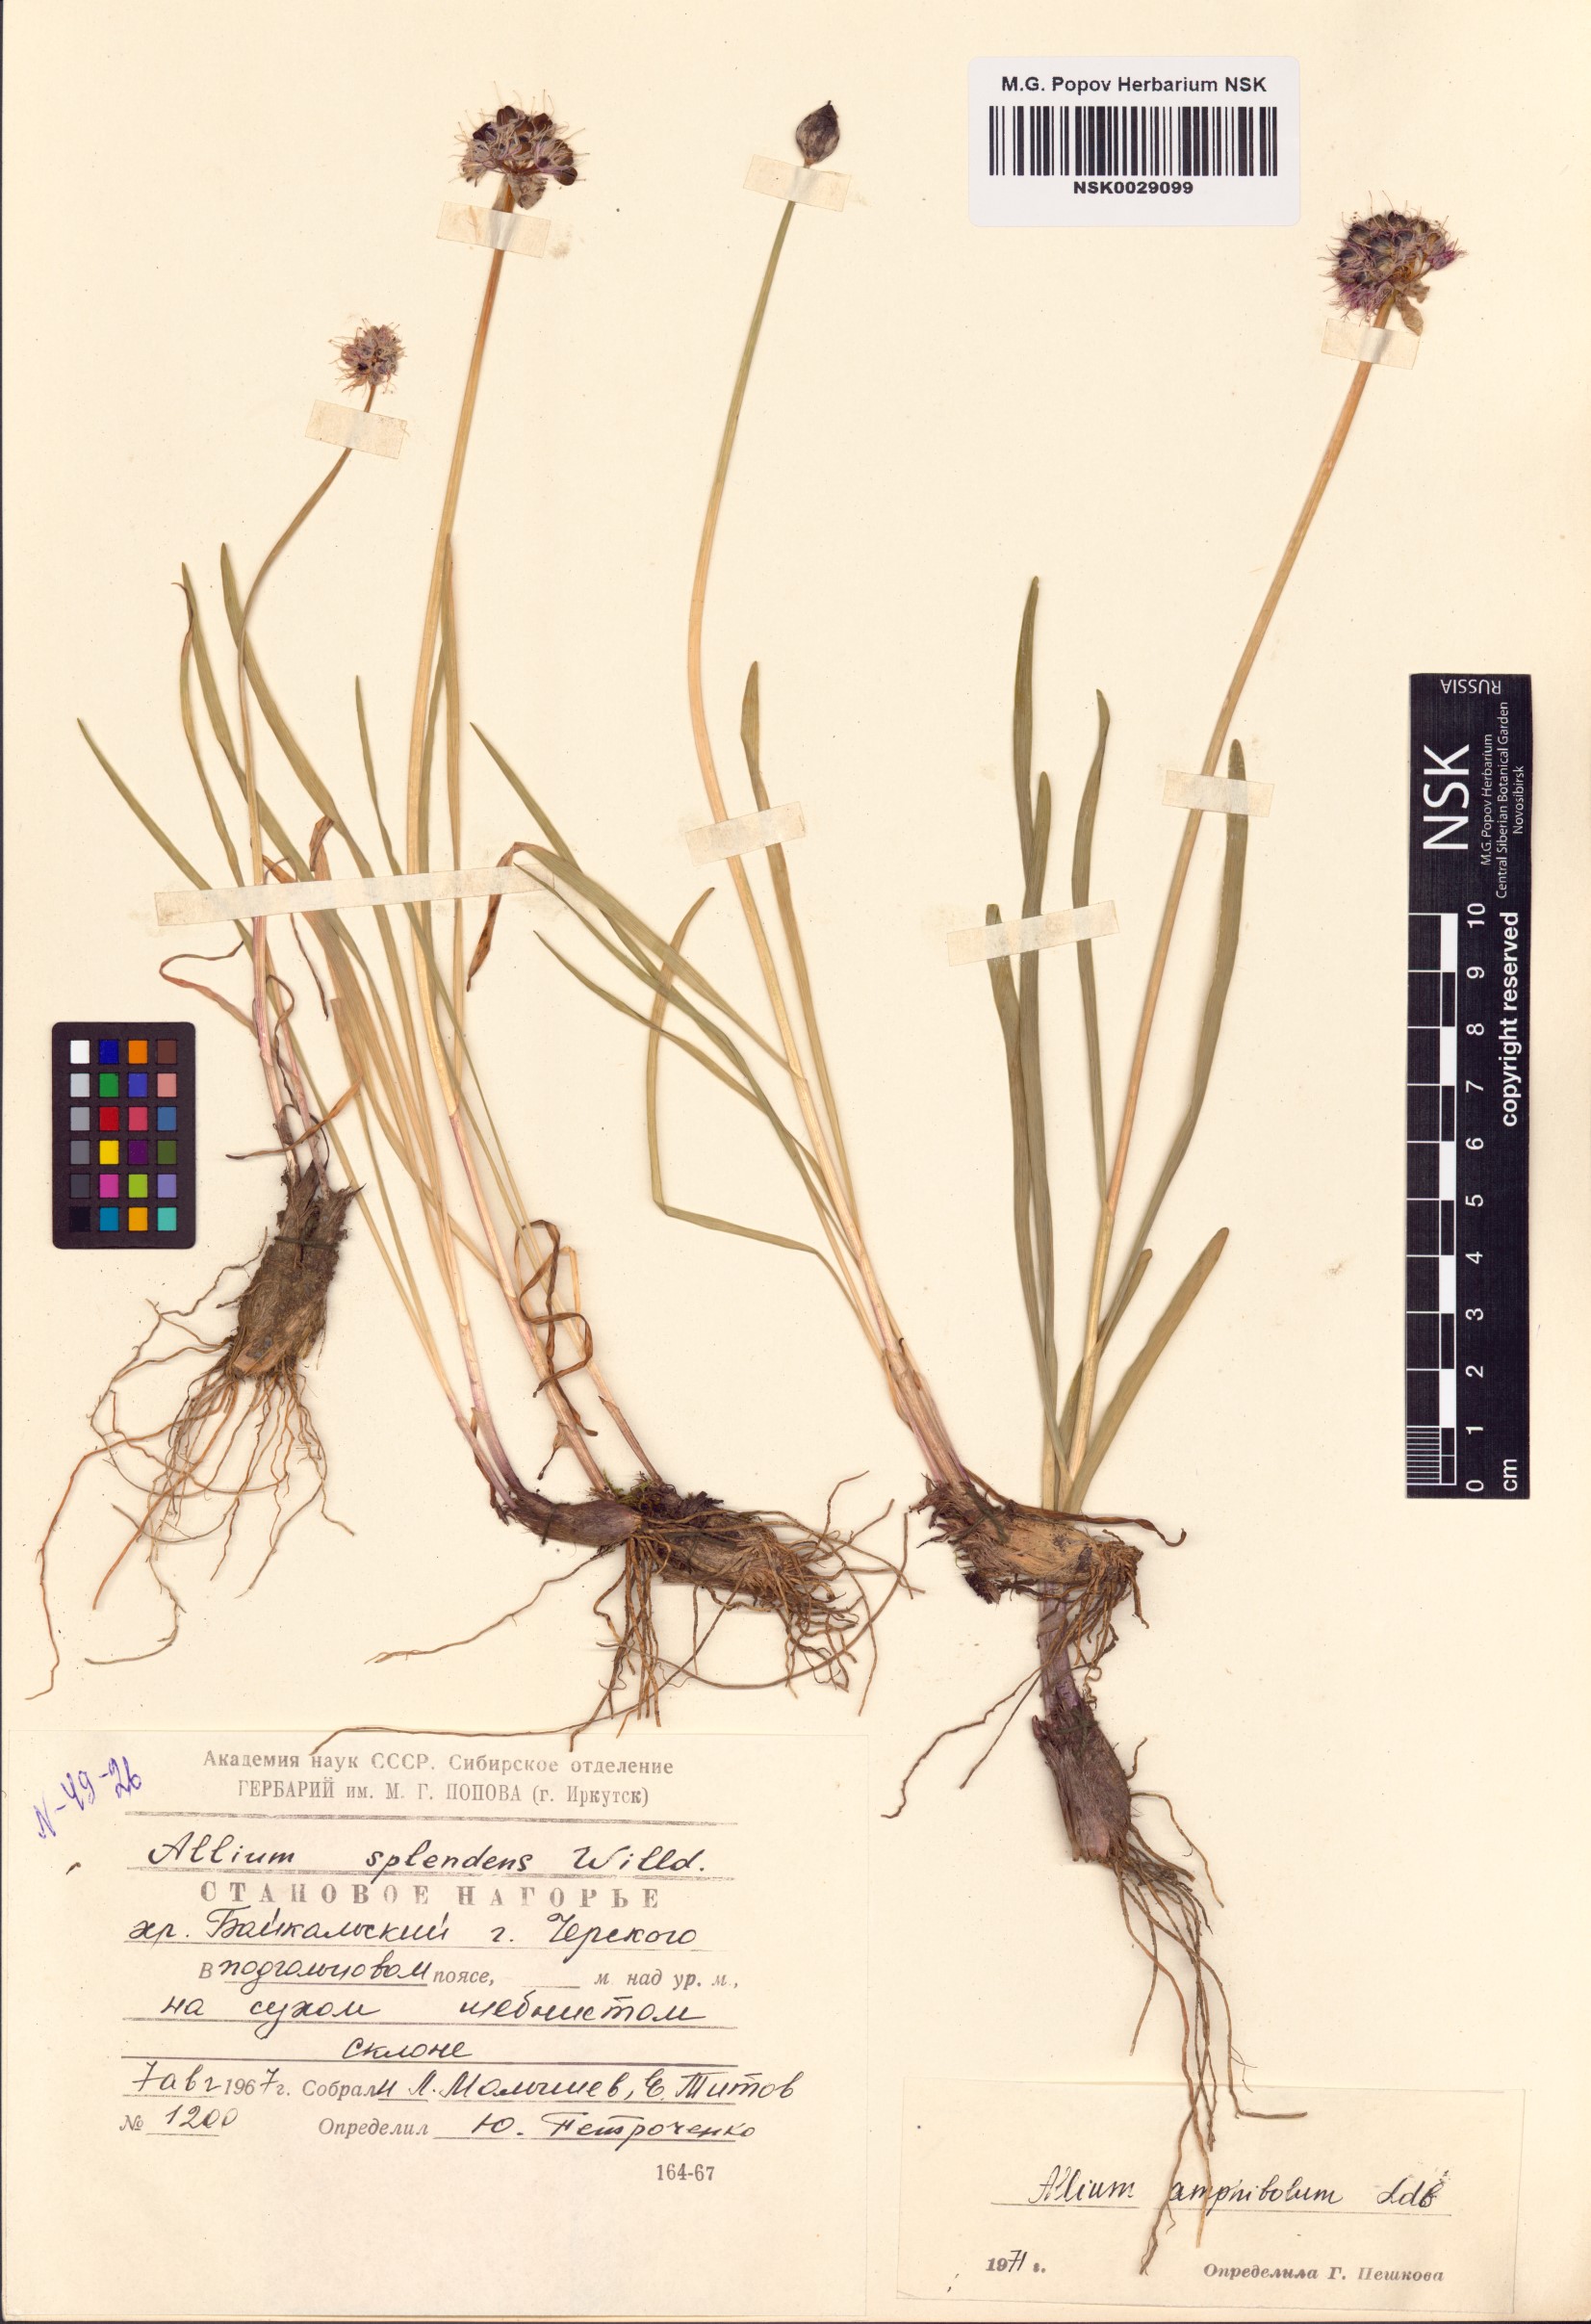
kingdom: Plantae
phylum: Tracheophyta
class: Liliopsida
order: Asparagales
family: Amaryllidaceae
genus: Allium
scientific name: Allium amphibolum
